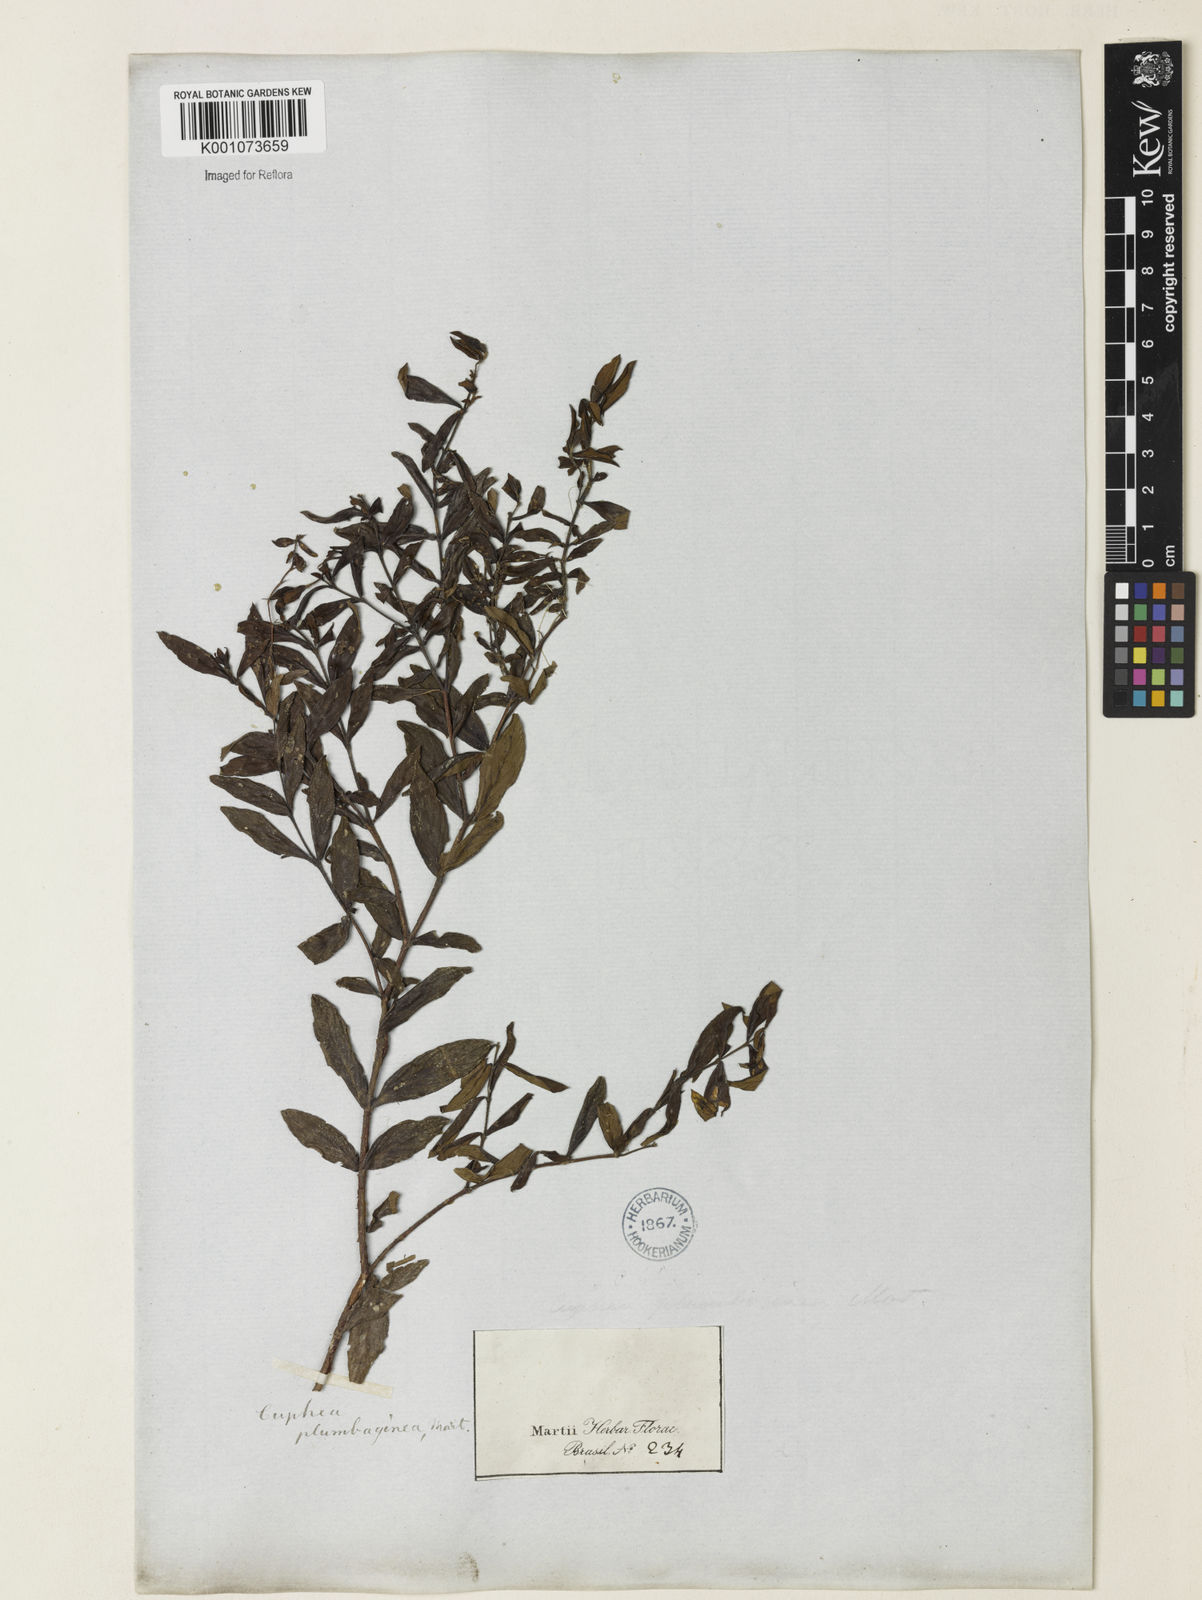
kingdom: Plantae
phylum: Tracheophyta
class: Magnoliopsida
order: Myrtales
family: Lythraceae
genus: Cuphea
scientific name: Cuphea calophylla
